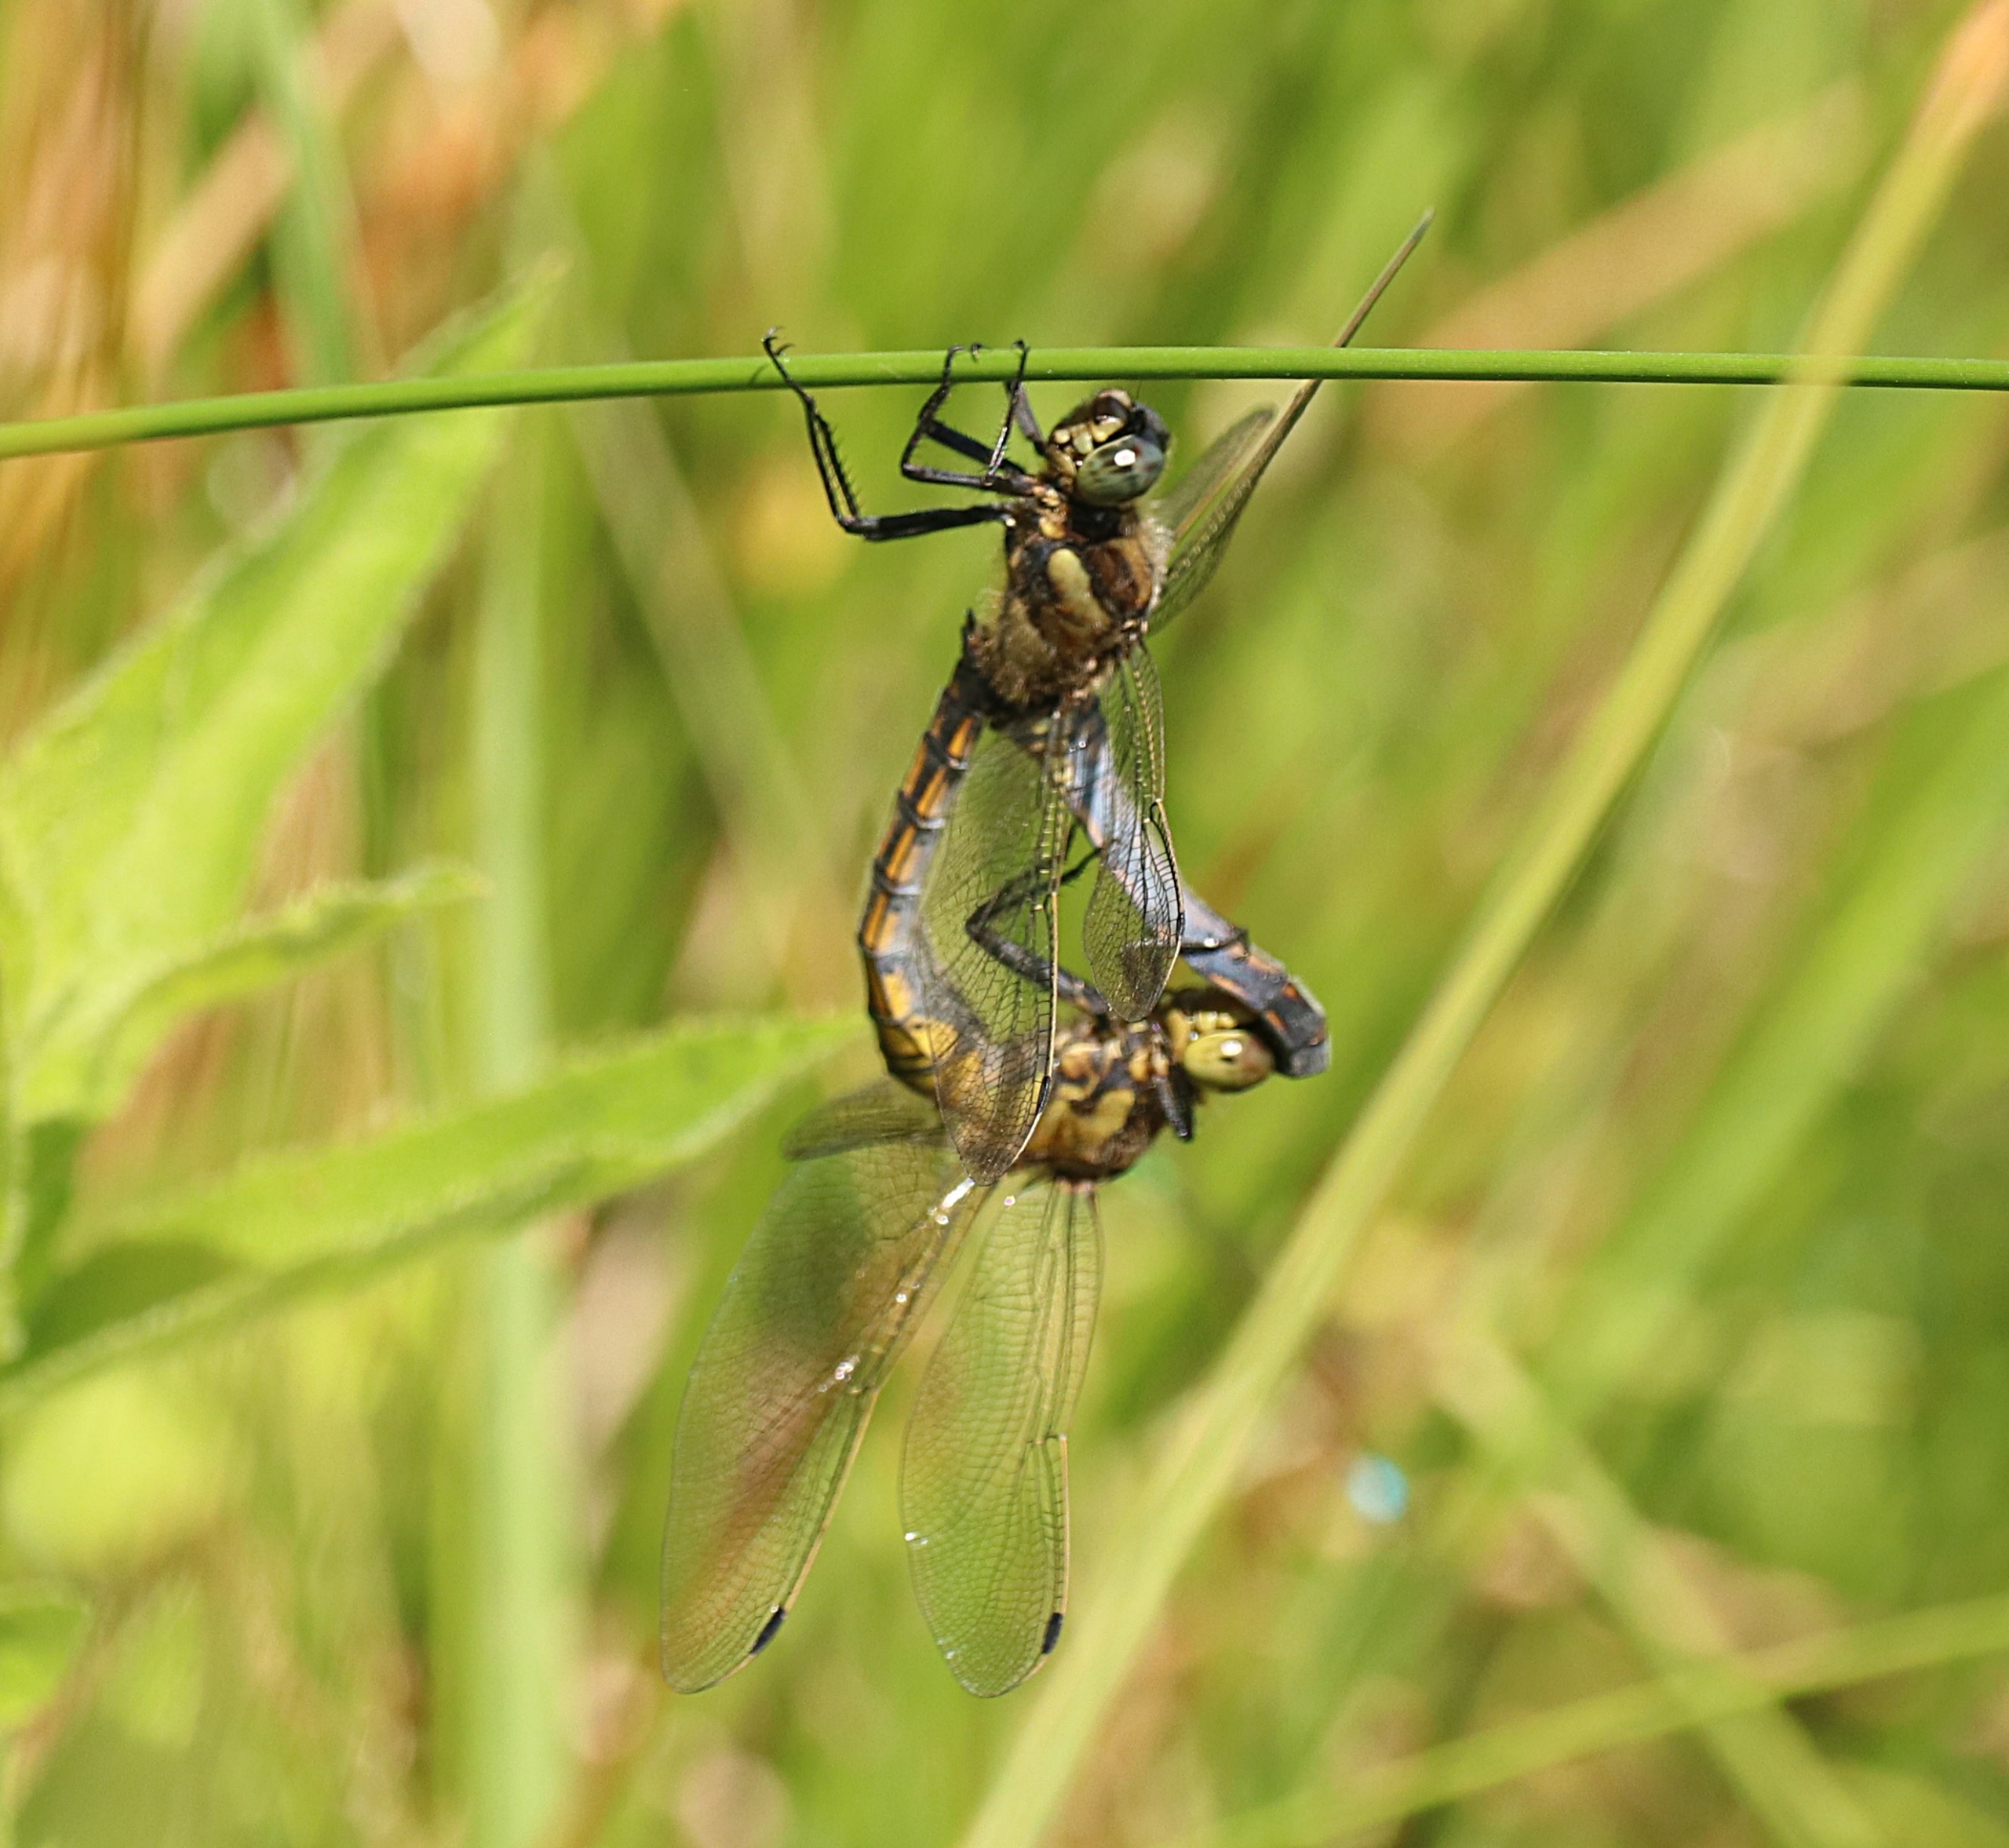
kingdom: Animalia
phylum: Arthropoda
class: Insecta
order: Odonata
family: Libellulidae
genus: Orthetrum
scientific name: Orthetrum cancellatum
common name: Stor blåpil
